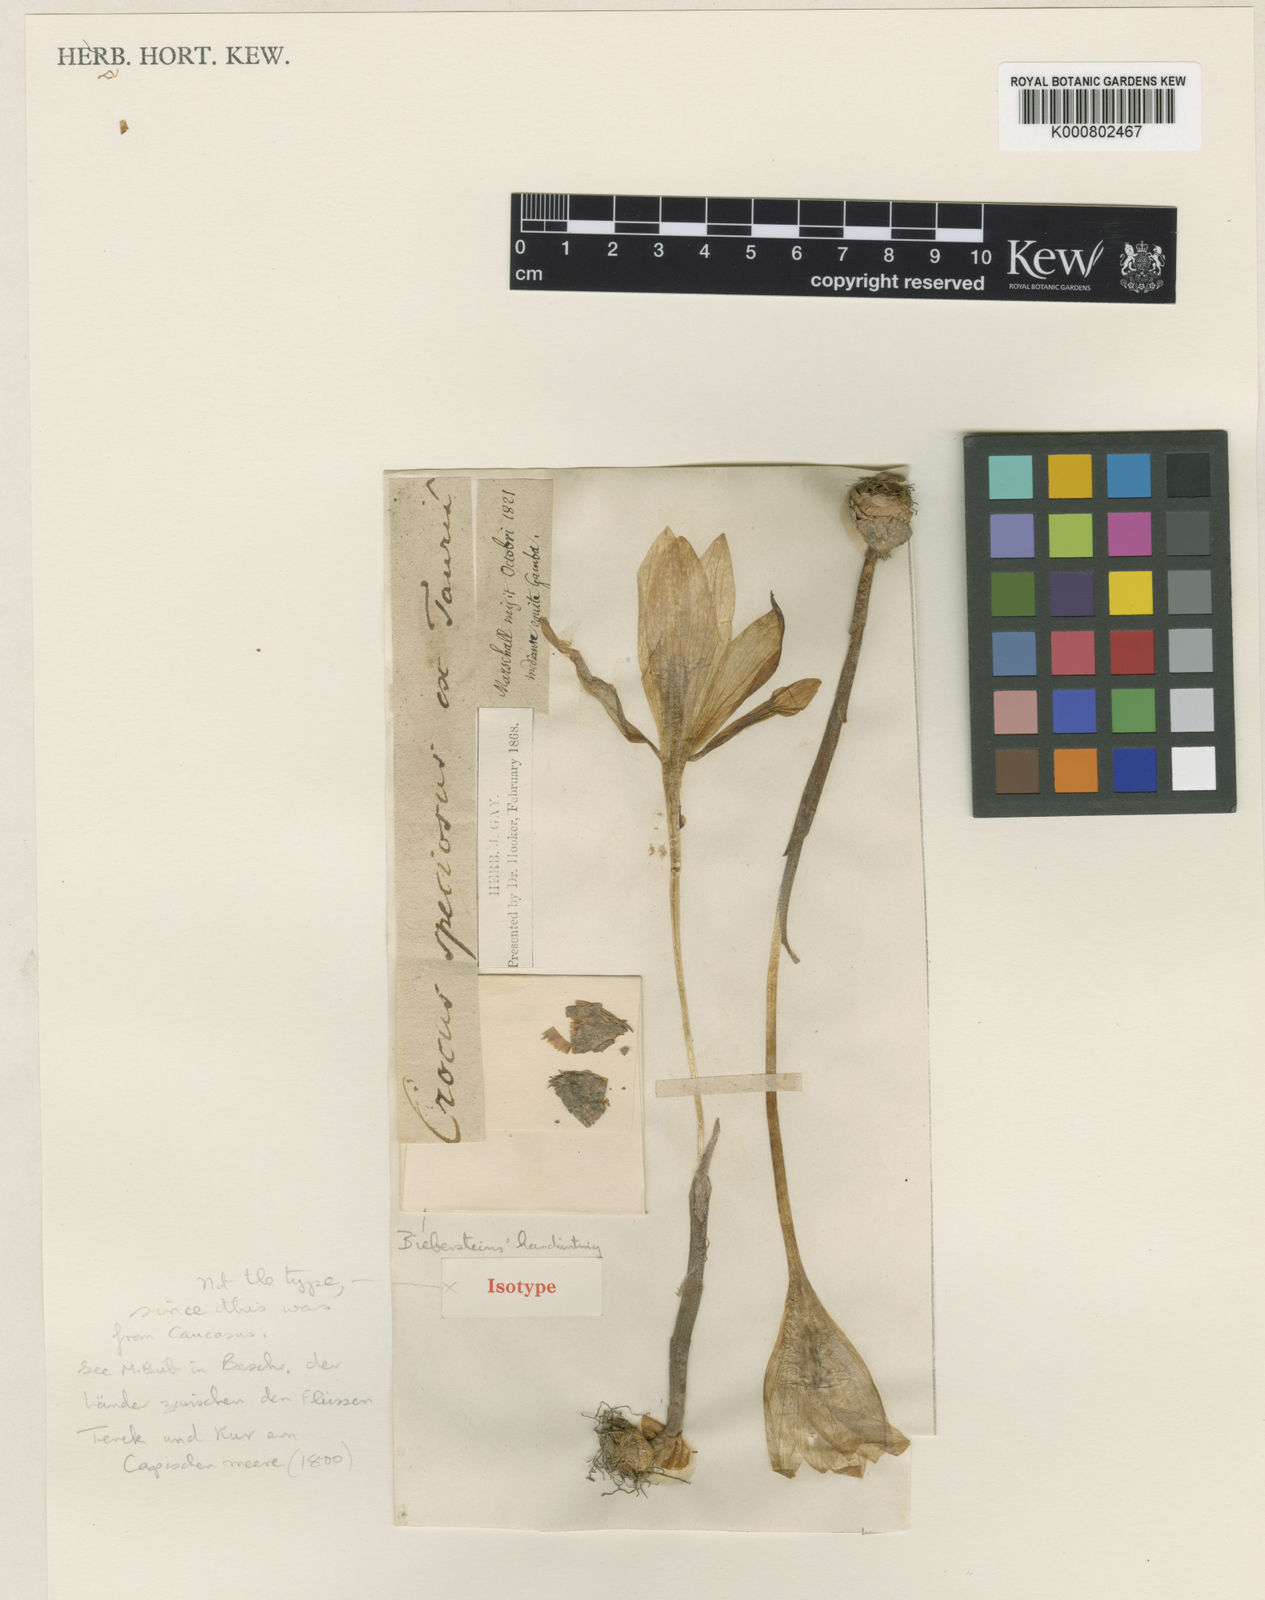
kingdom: Plantae
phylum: Tracheophyta
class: Liliopsida
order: Asparagales
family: Iridaceae
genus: Crocus
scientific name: Crocus speciosus
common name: Bieberstein's crocus
